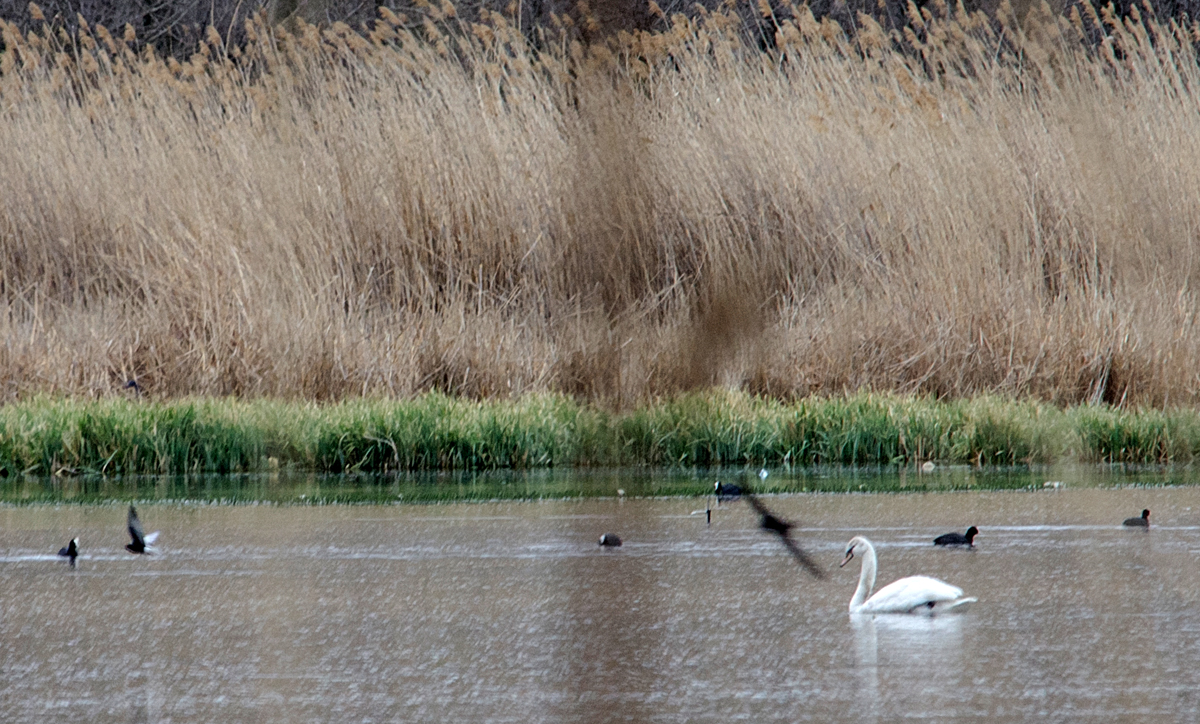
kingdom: Animalia
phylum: Chordata
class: Aves
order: Anseriformes
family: Anatidae
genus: Cygnus
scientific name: Cygnus olor
